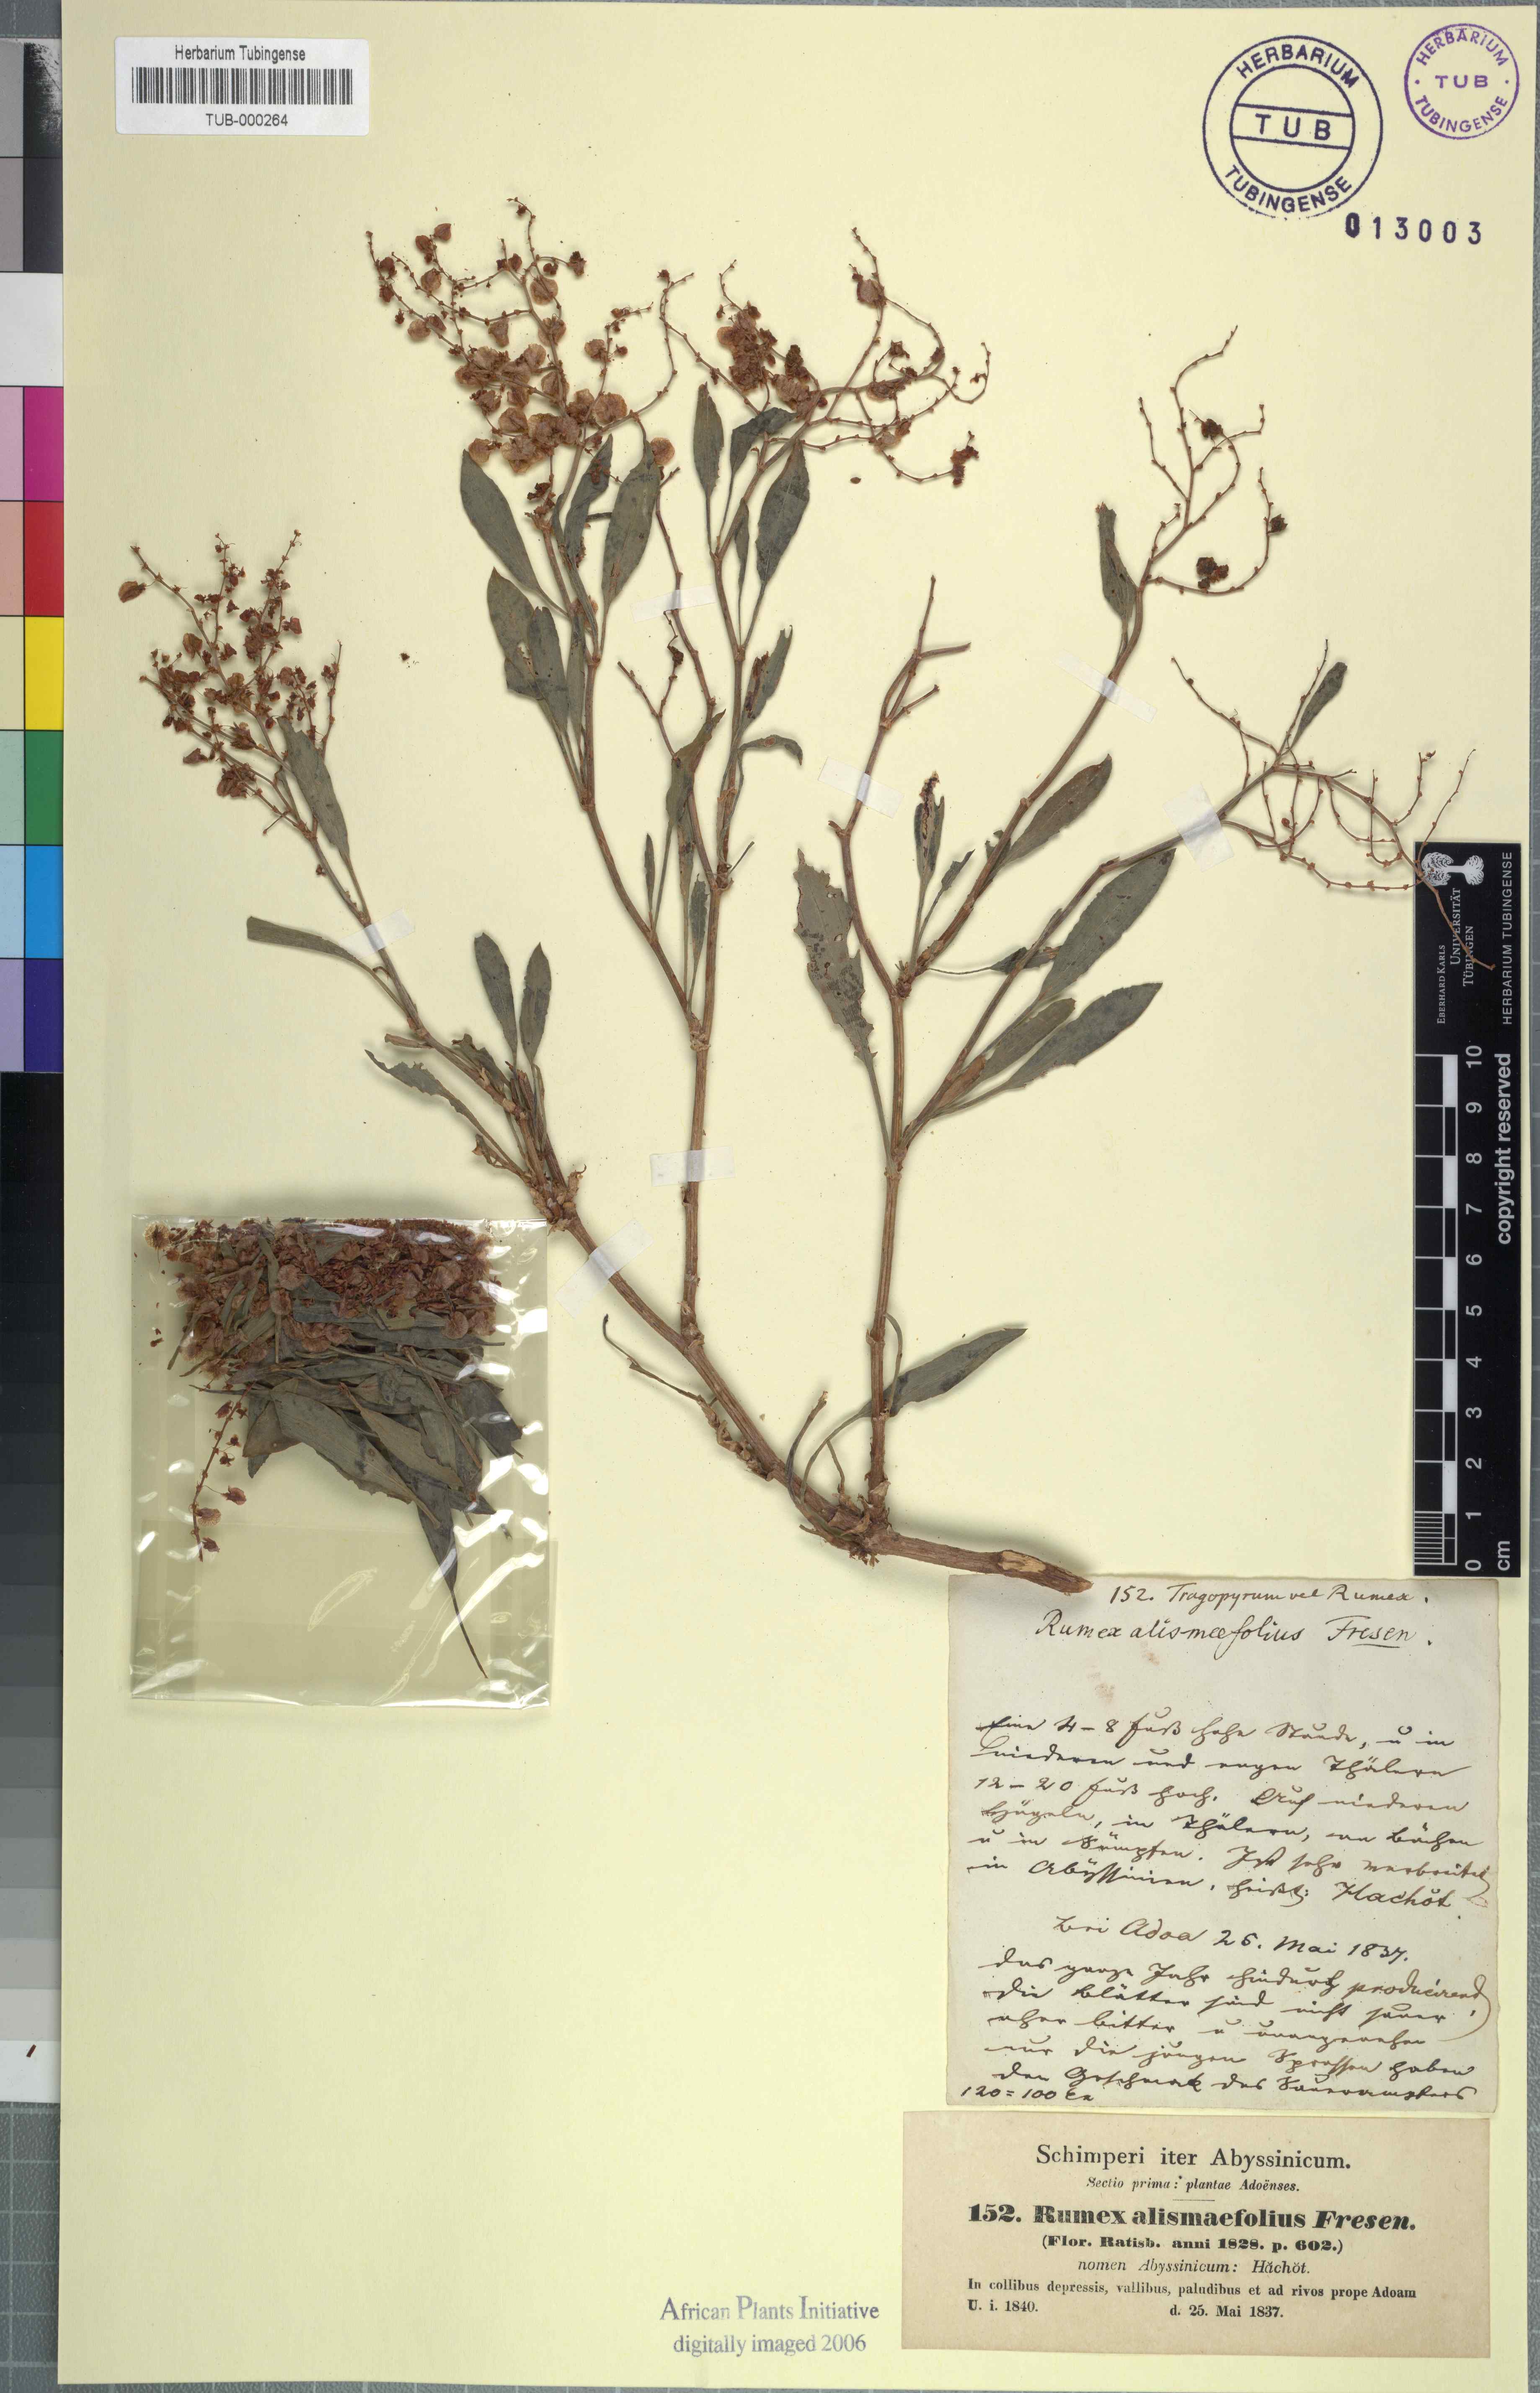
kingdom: Plantae
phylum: Tracheophyta
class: Magnoliopsida
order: Caryophyllales
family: Polygonaceae
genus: Rumex
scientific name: Rumex nervosus
